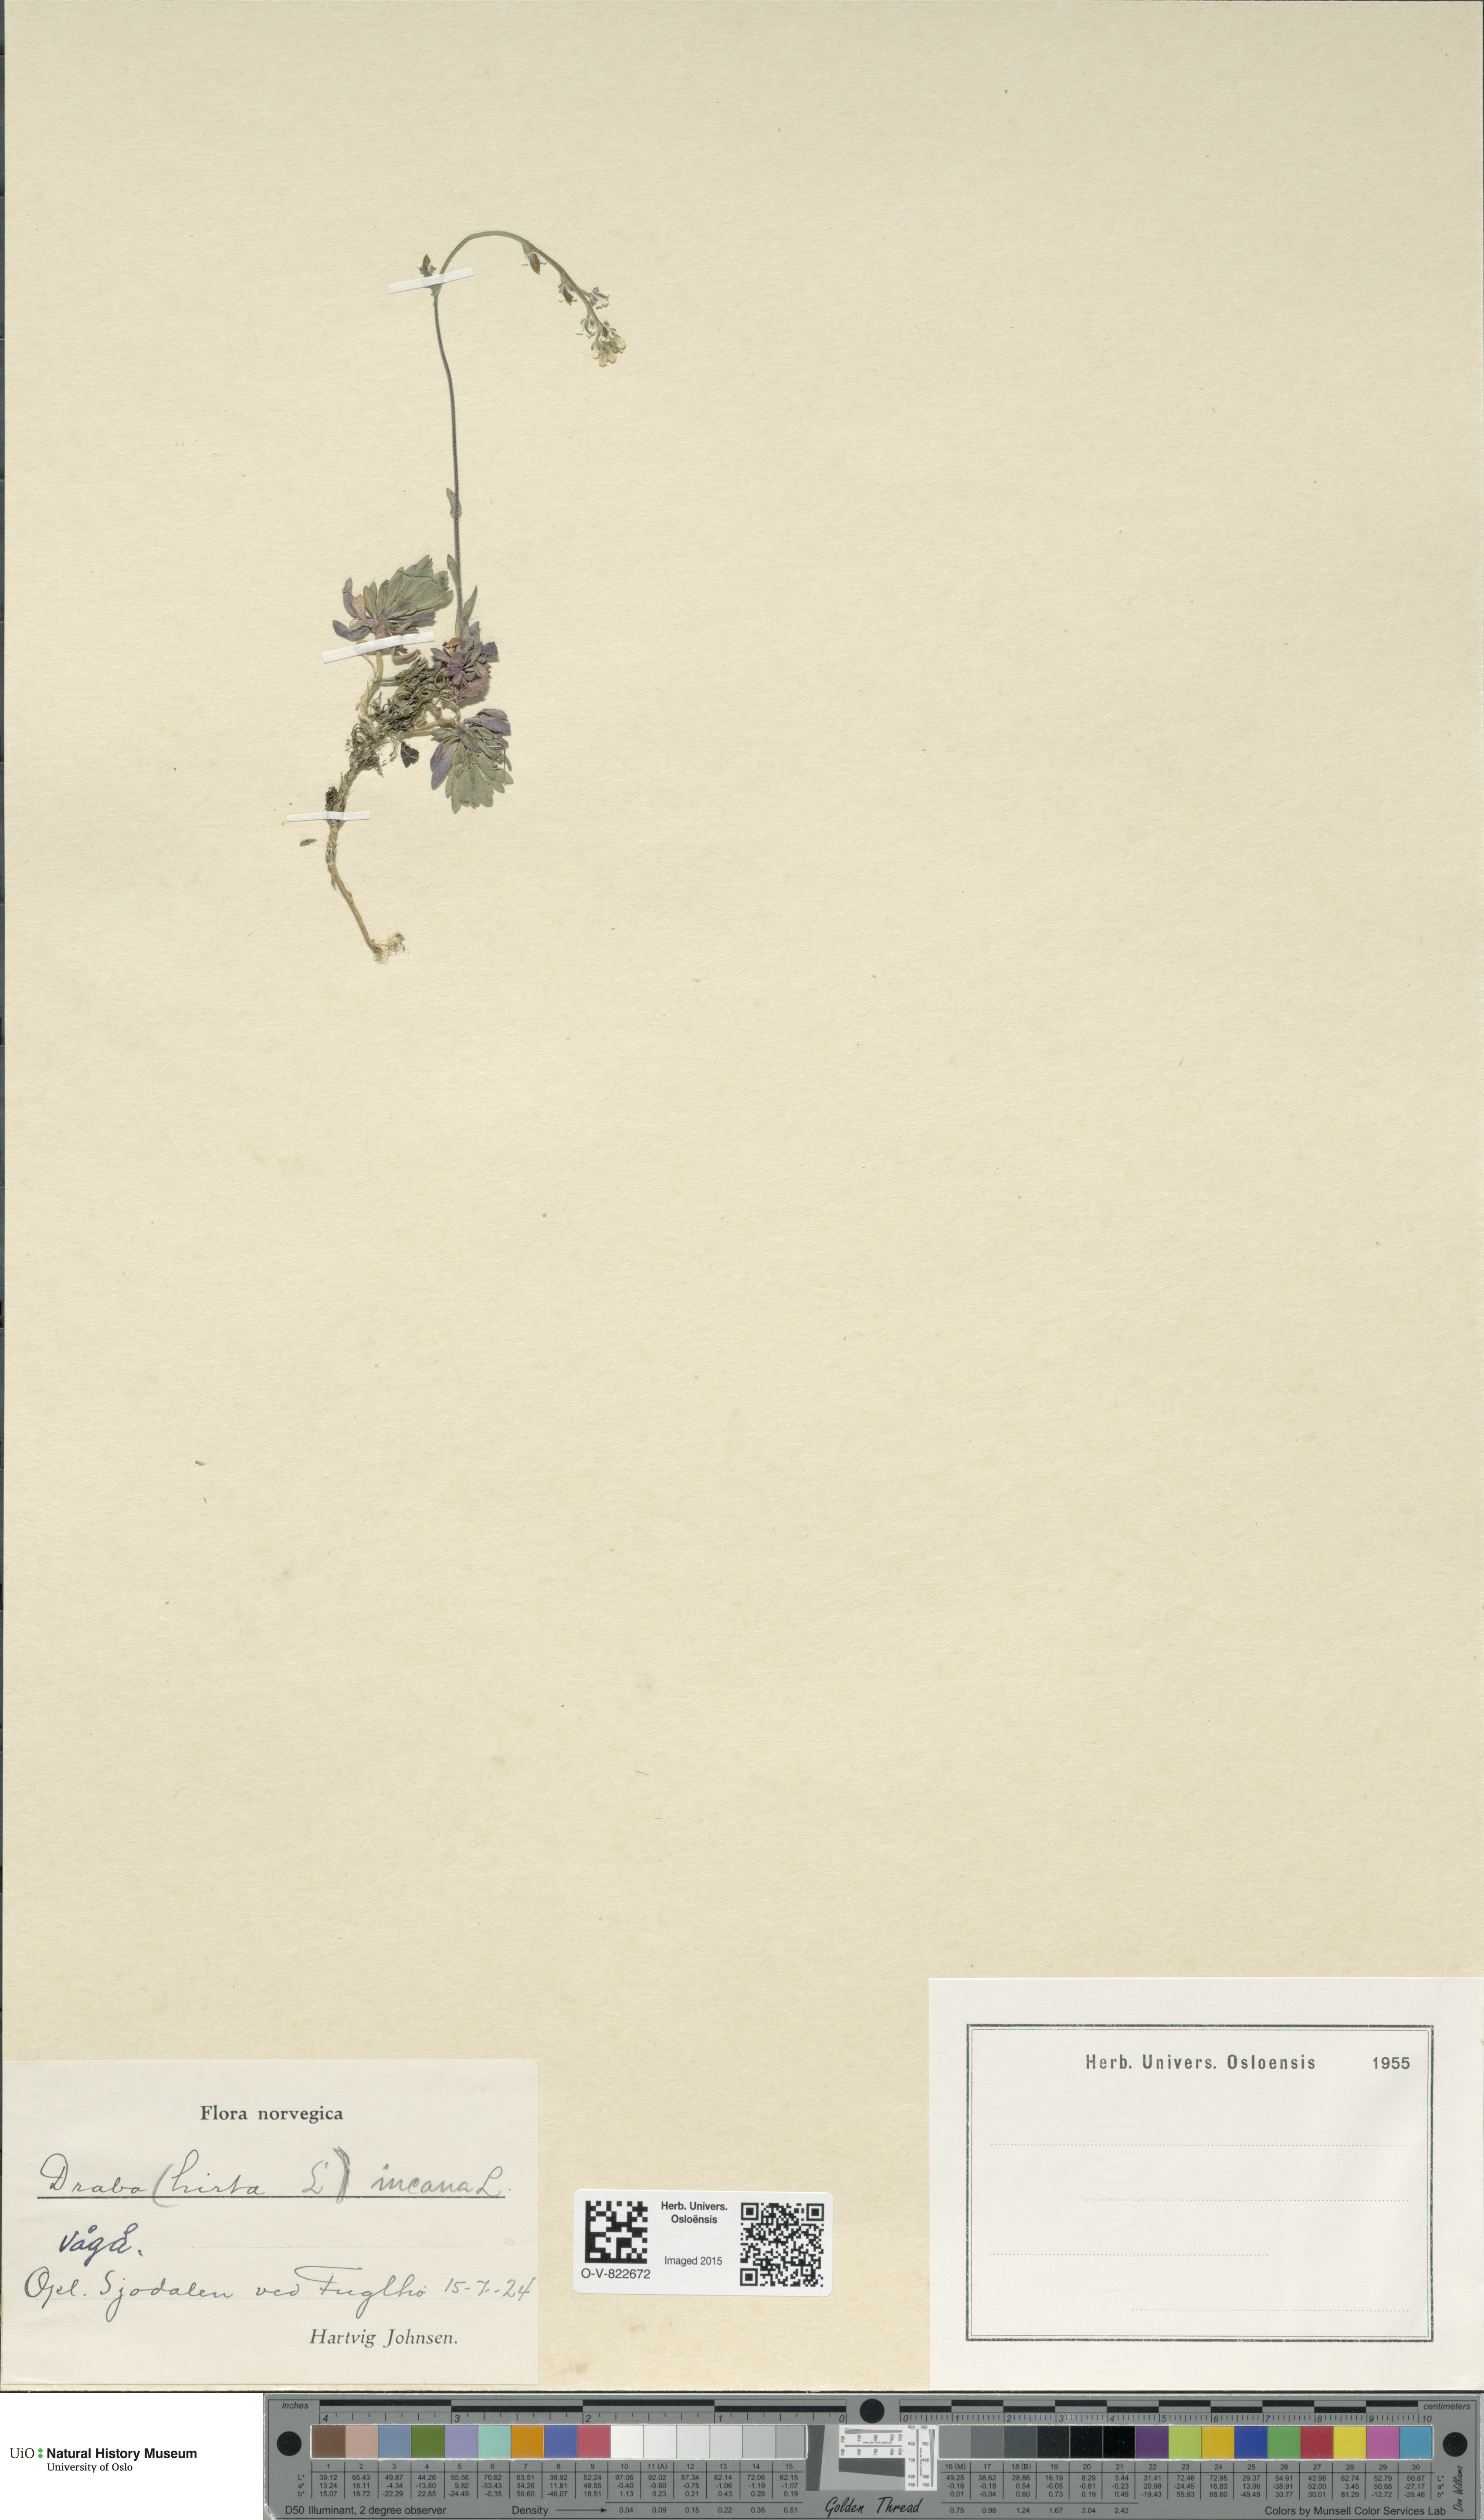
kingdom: Plantae
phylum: Tracheophyta
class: Magnoliopsida
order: Brassicales
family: Brassicaceae
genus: Draba
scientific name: Draba incana
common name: Hoary whitlow-grass
